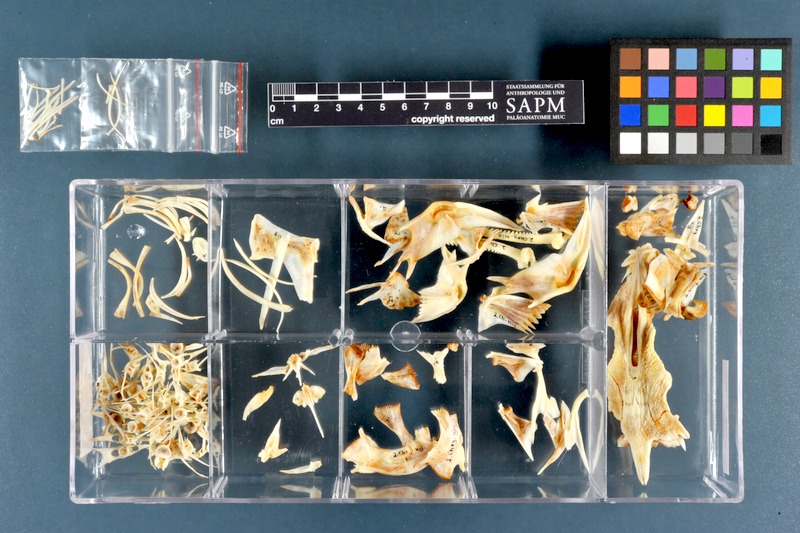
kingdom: Animalia
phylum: Chordata
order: Siluriformes
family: Claroteidae
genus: Chrysichthys
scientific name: Chrysichthys nigrodigitatus
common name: Bagrid catfish
